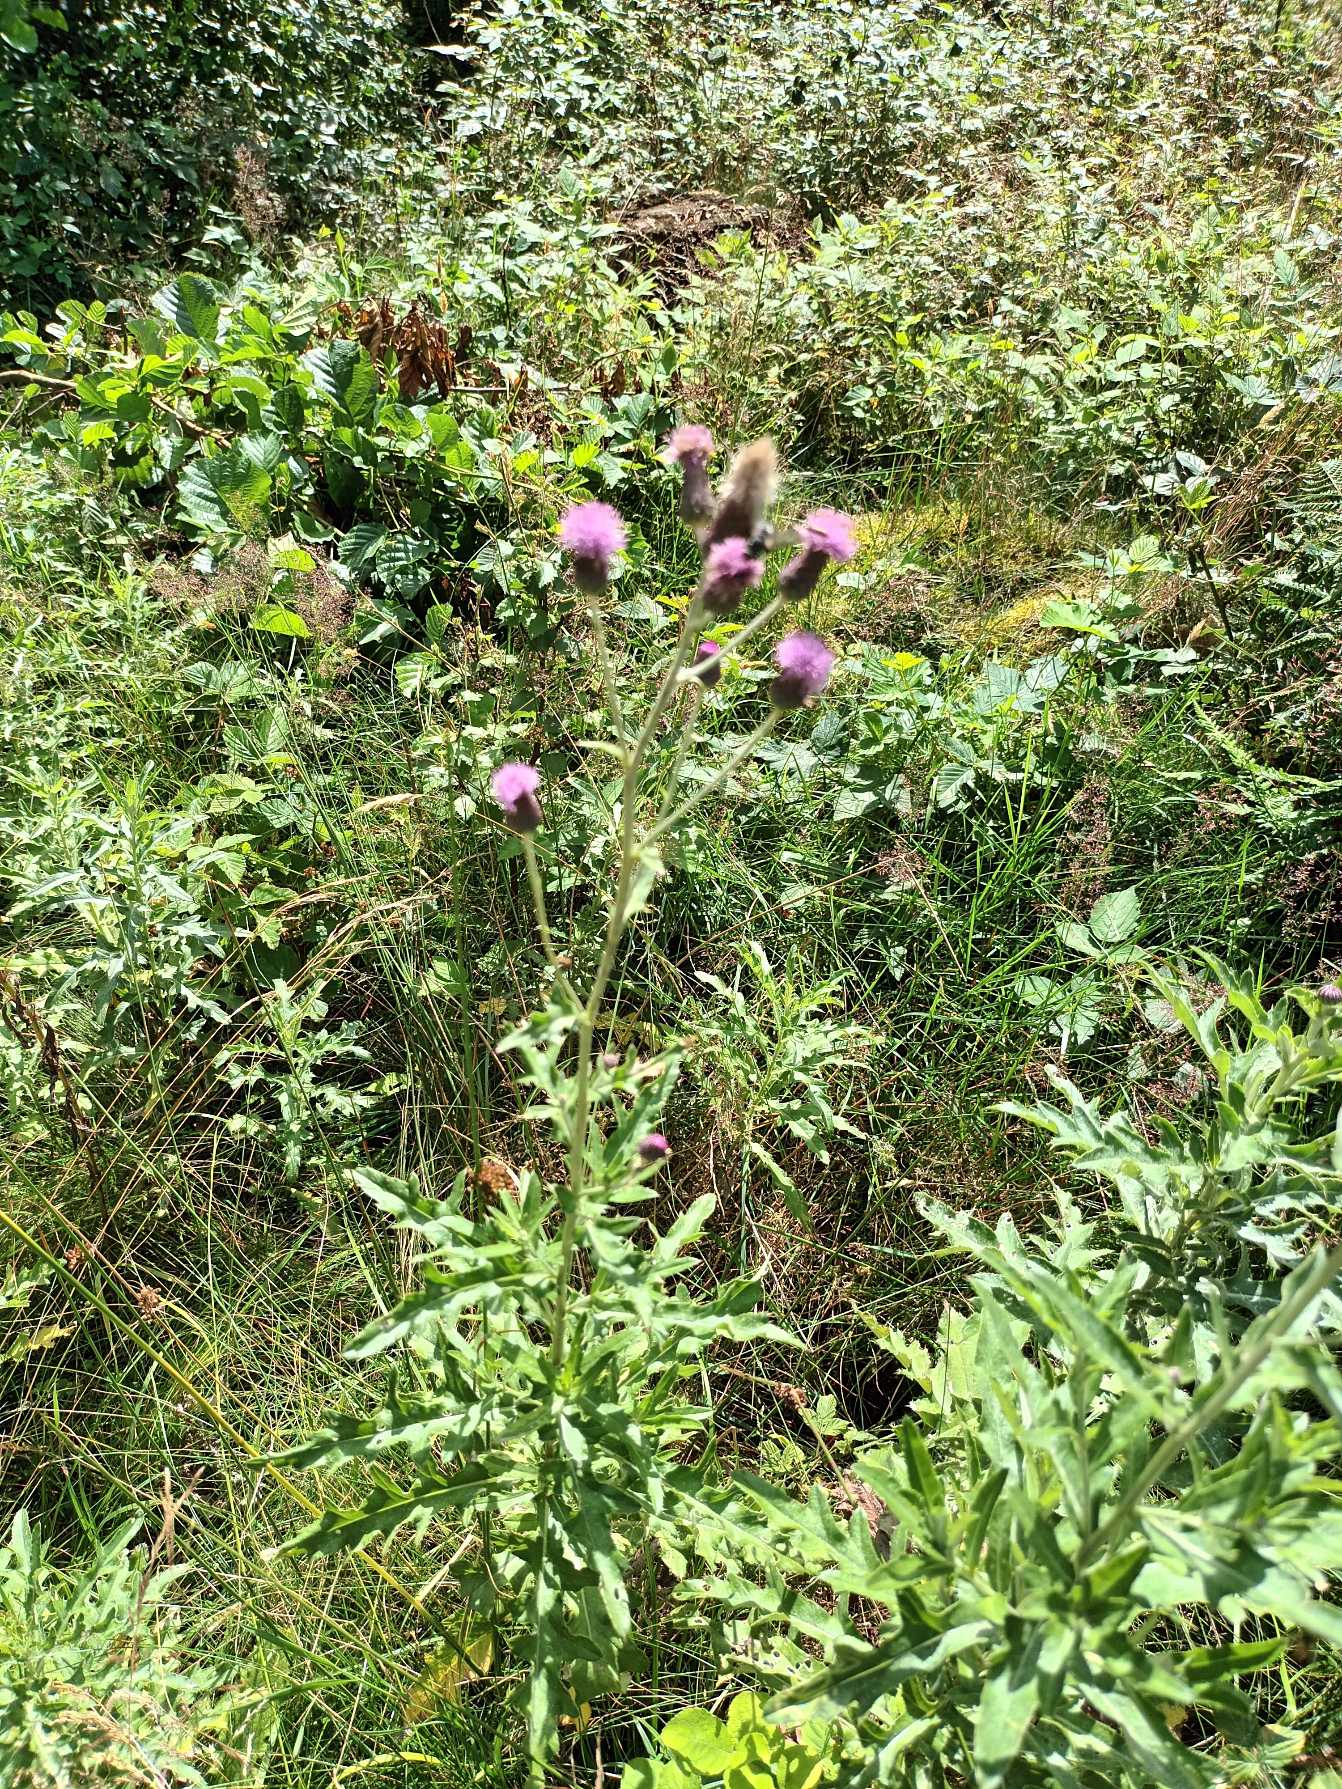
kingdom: Plantae
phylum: Tracheophyta
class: Magnoliopsida
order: Asterales
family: Asteraceae
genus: Cirsium
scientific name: Cirsium arvense
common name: Ager-tidsel
